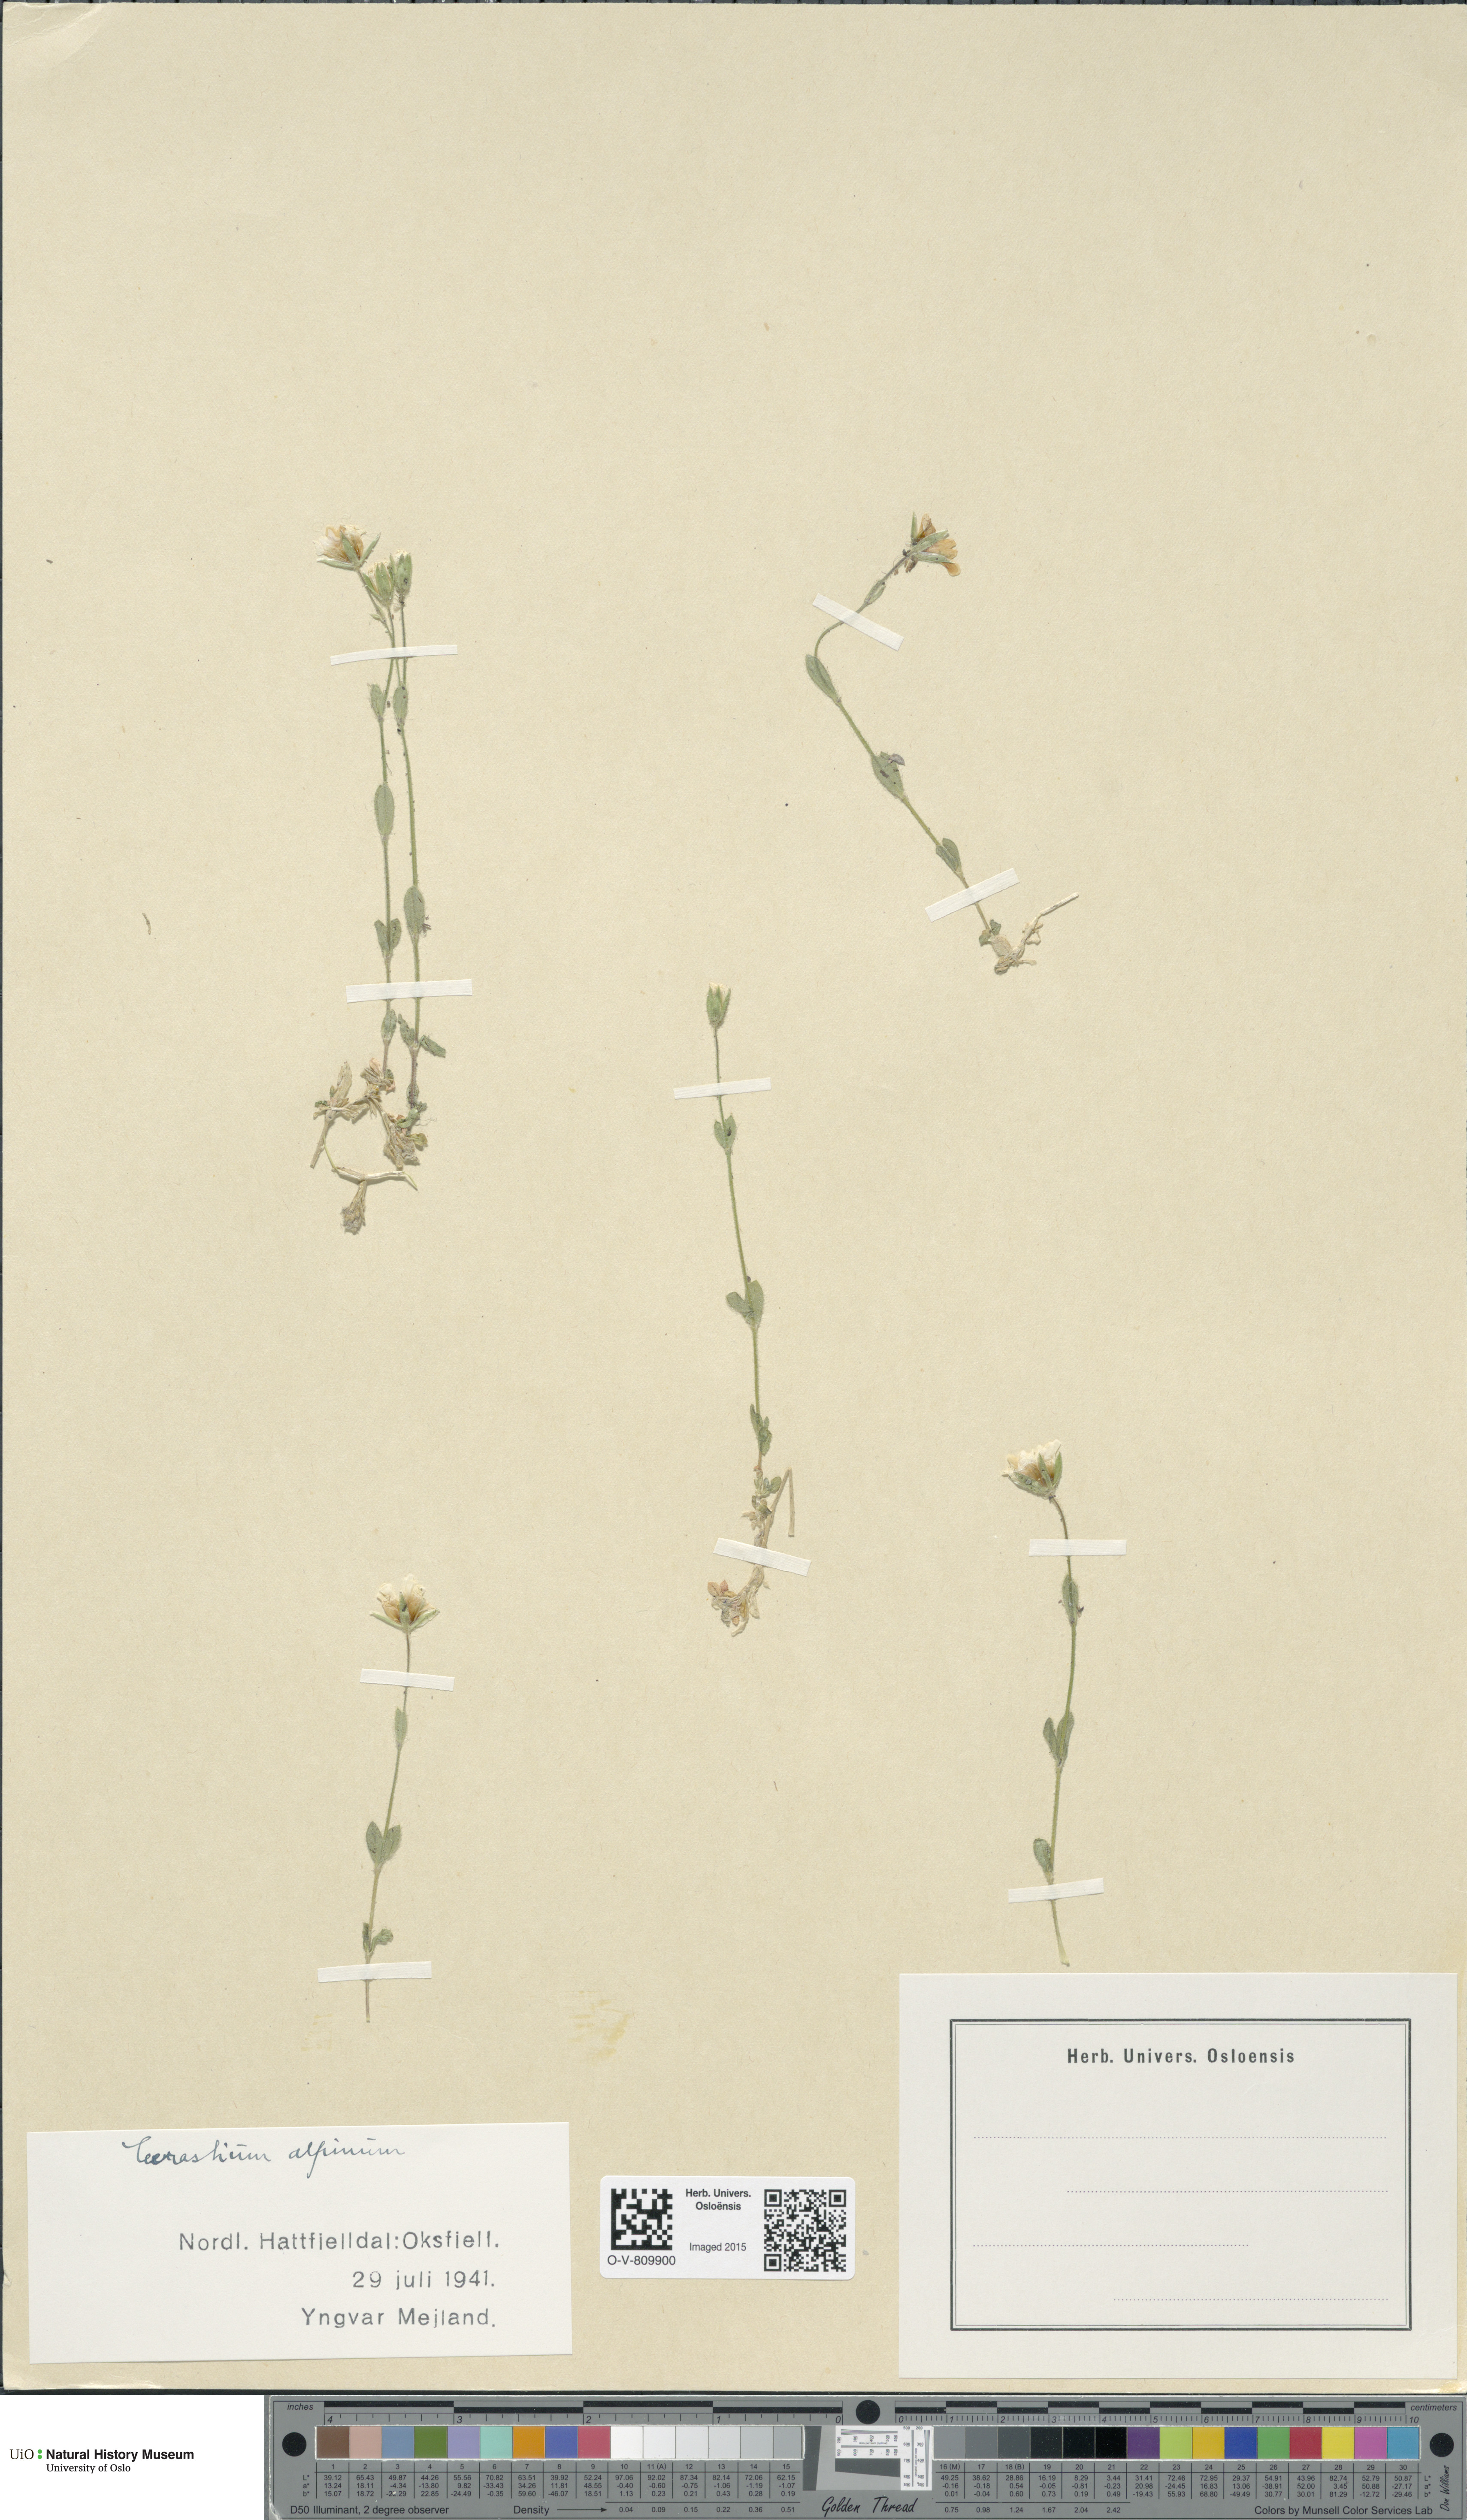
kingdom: Plantae
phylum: Tracheophyta
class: Magnoliopsida
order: Caryophyllales
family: Caryophyllaceae
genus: Cerastium
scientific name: Cerastium alpinum
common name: Alpine mouse-ear
